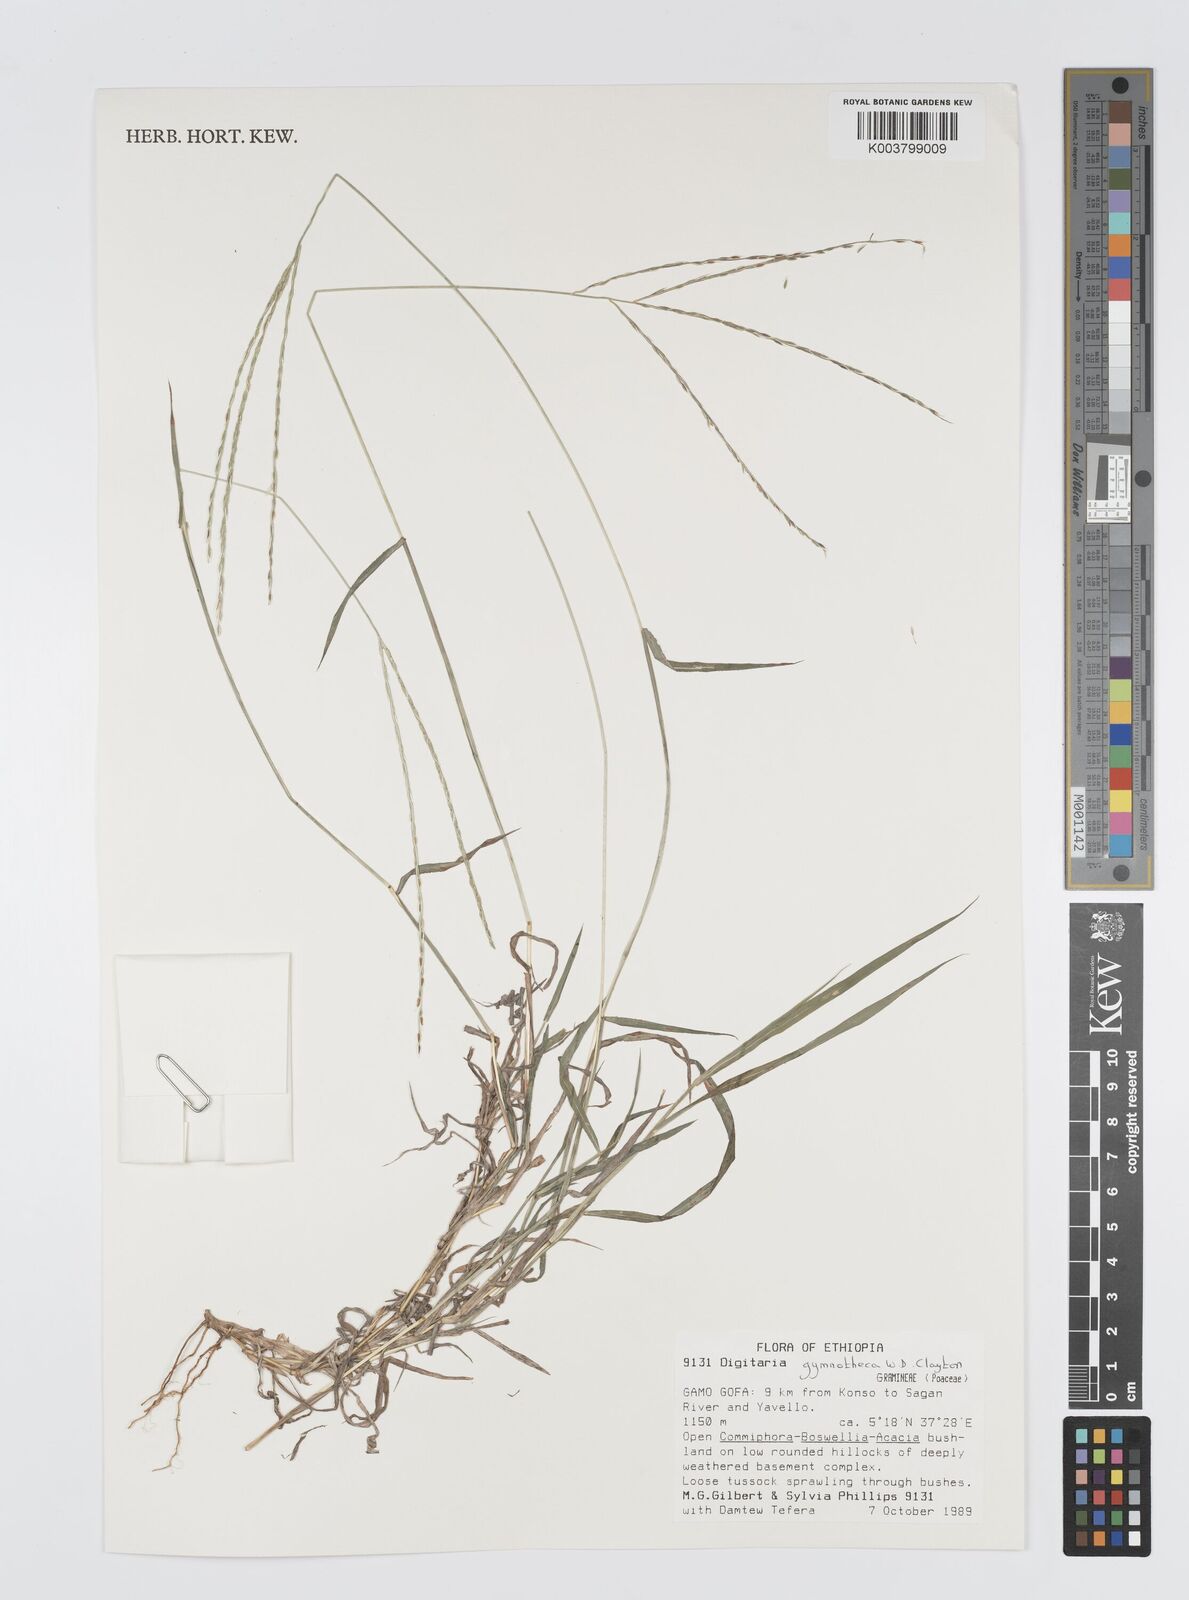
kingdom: Plantae
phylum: Tracheophyta
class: Liliopsida
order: Poales
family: Poaceae
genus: Digitaria
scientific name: Digitaria gymnotheca
